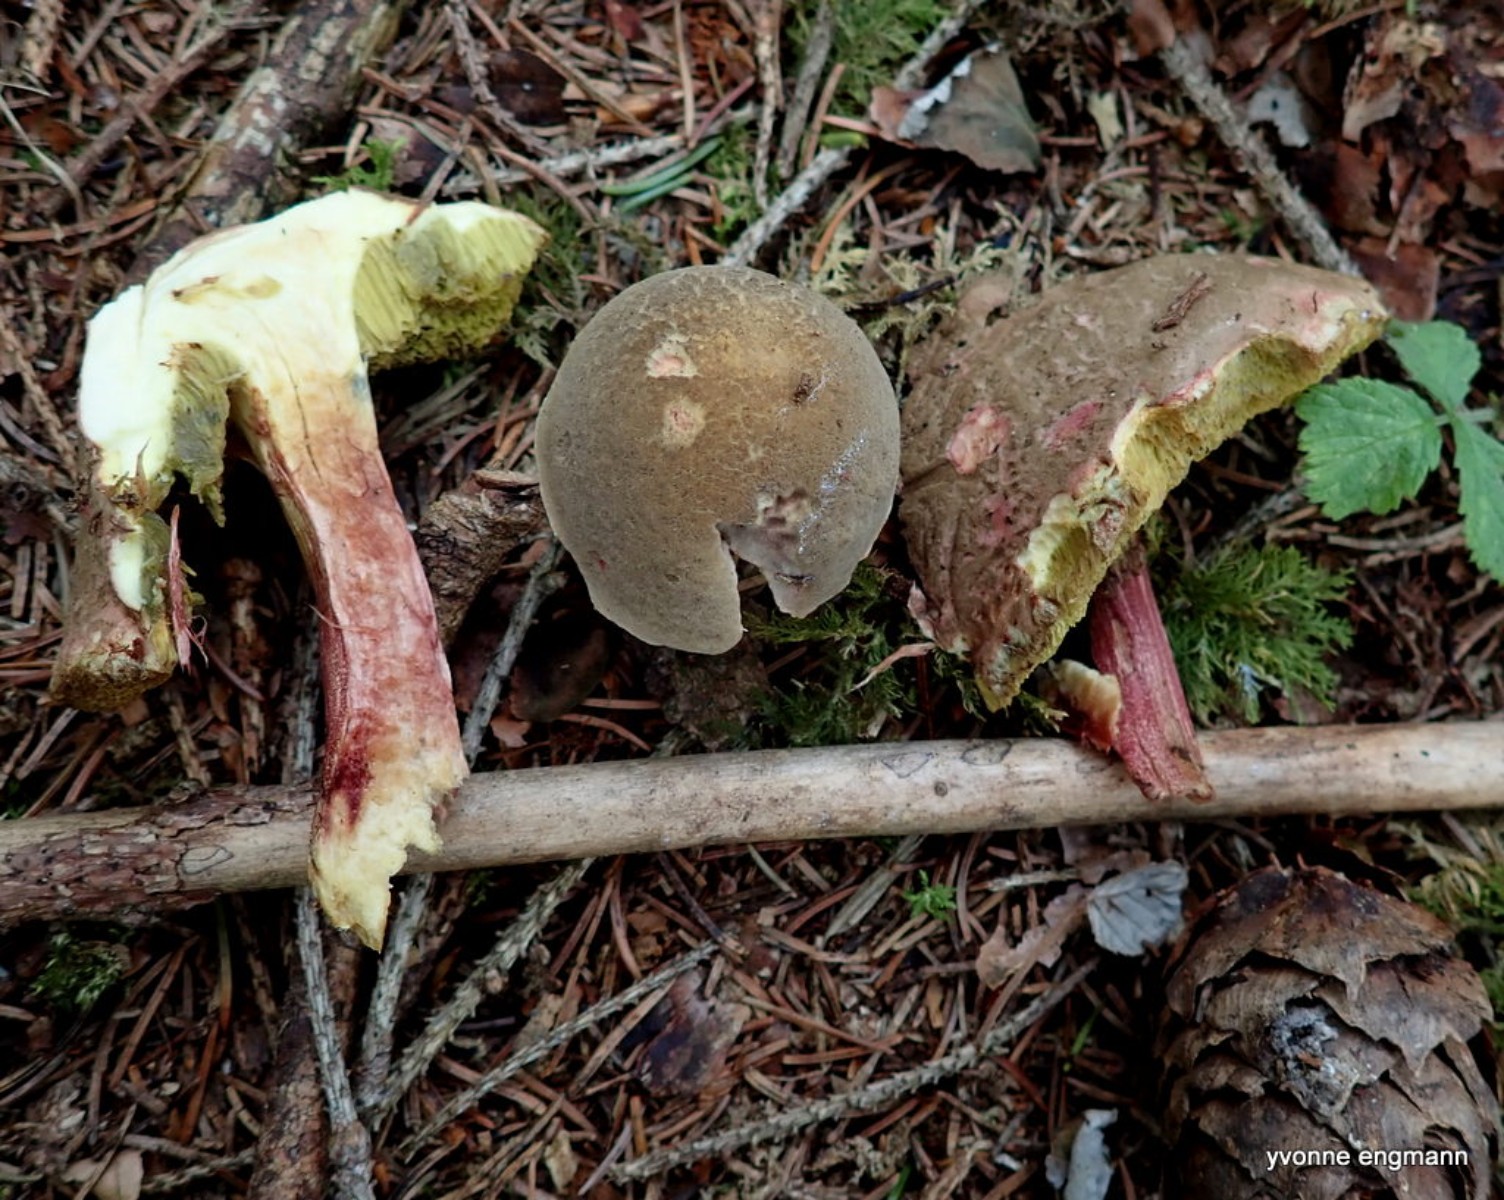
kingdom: Fungi
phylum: Basidiomycota
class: Agaricomycetes
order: Boletales
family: Boletaceae
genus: Xerocomellus
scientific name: Xerocomellus chrysenteron
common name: rødsprukken rørhat
